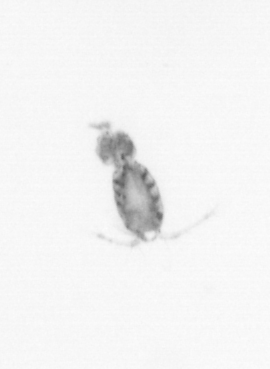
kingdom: Animalia
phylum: Arthropoda
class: Copepoda
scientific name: Copepoda
